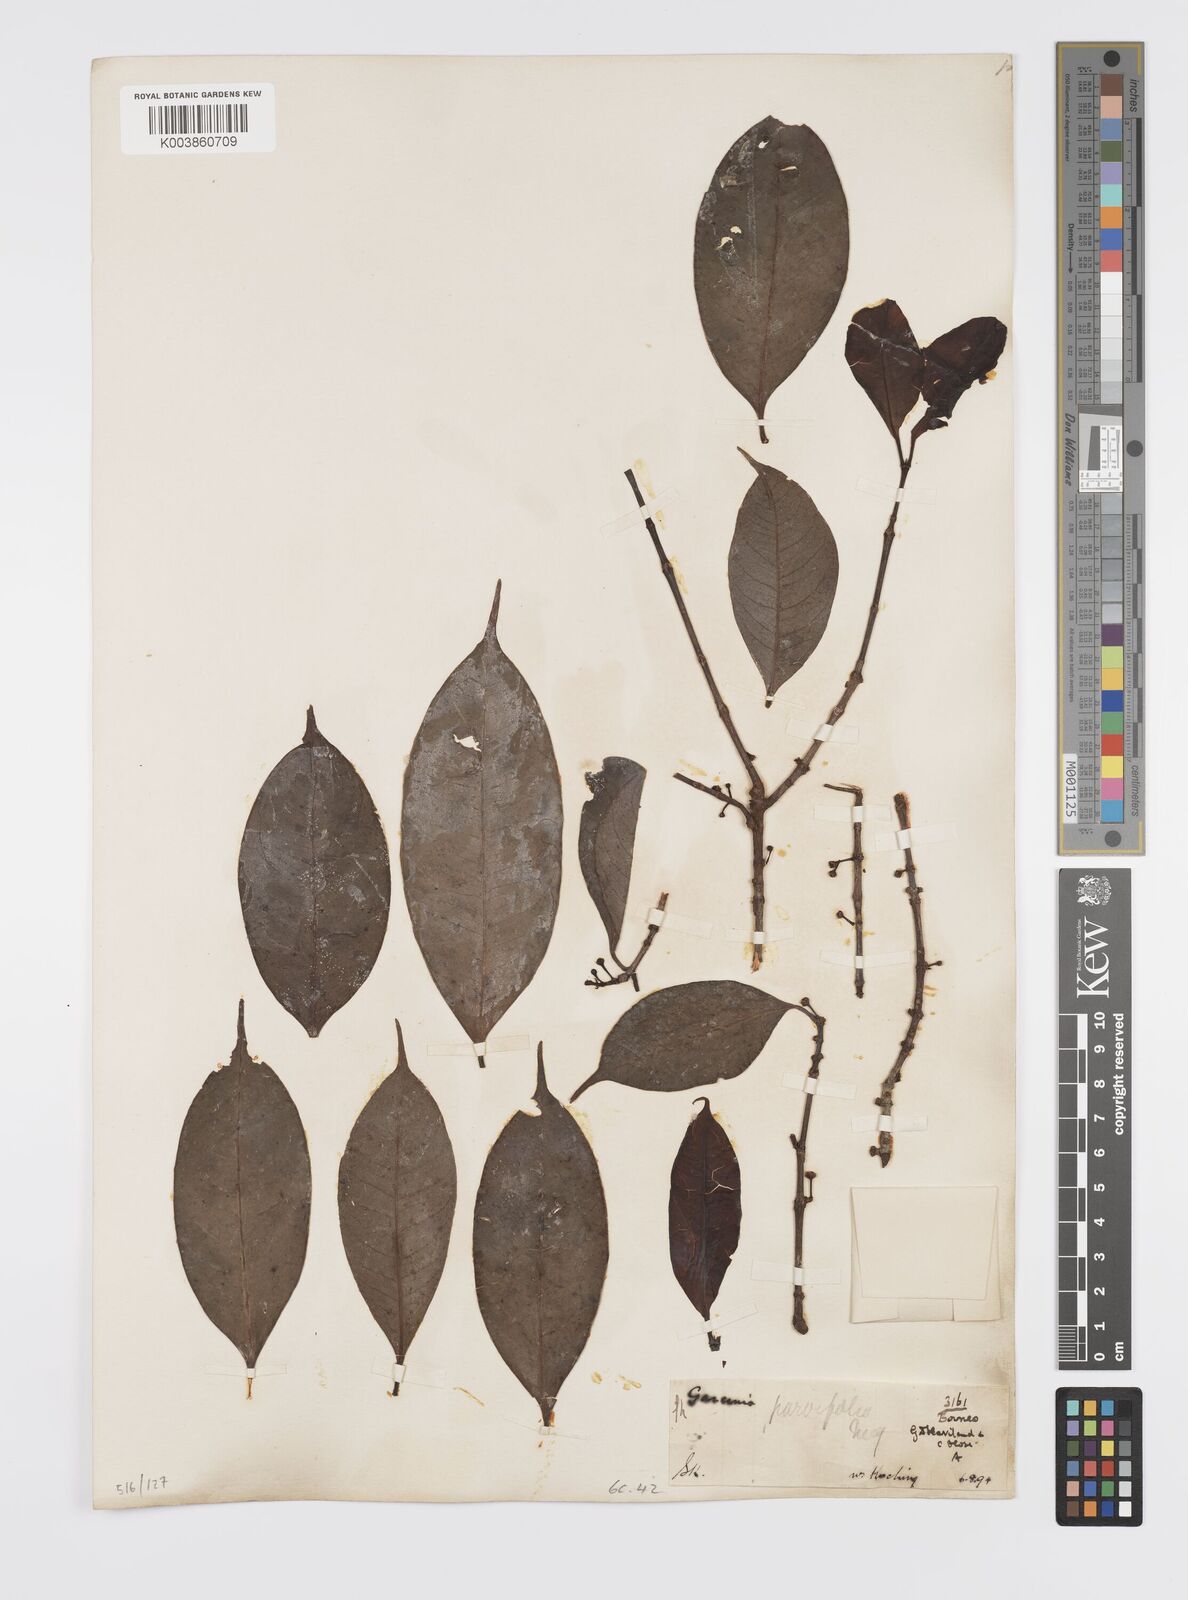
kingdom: Plantae
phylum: Tracheophyta
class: Magnoliopsida
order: Malpighiales
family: Clusiaceae
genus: Garcinia
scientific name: Garcinia parvifolia
